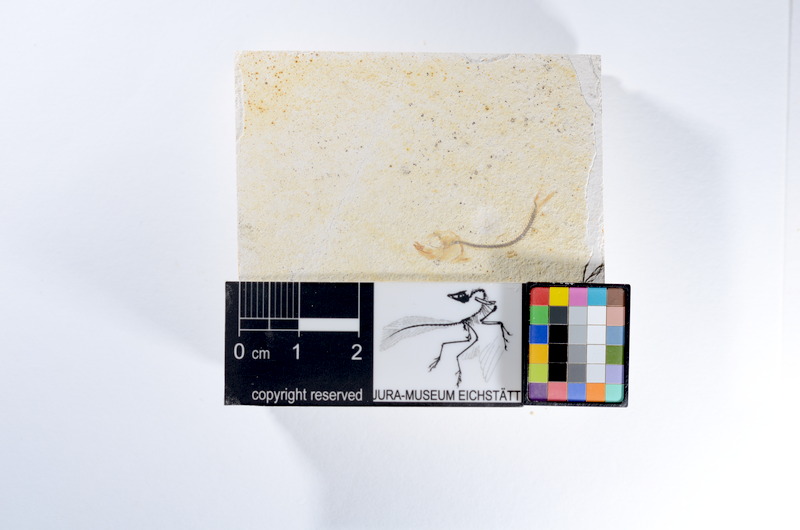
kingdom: Animalia
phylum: Chordata
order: Salmoniformes
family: Orthogonikleithridae
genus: Orthogonikleithrus
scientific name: Orthogonikleithrus hoelli
